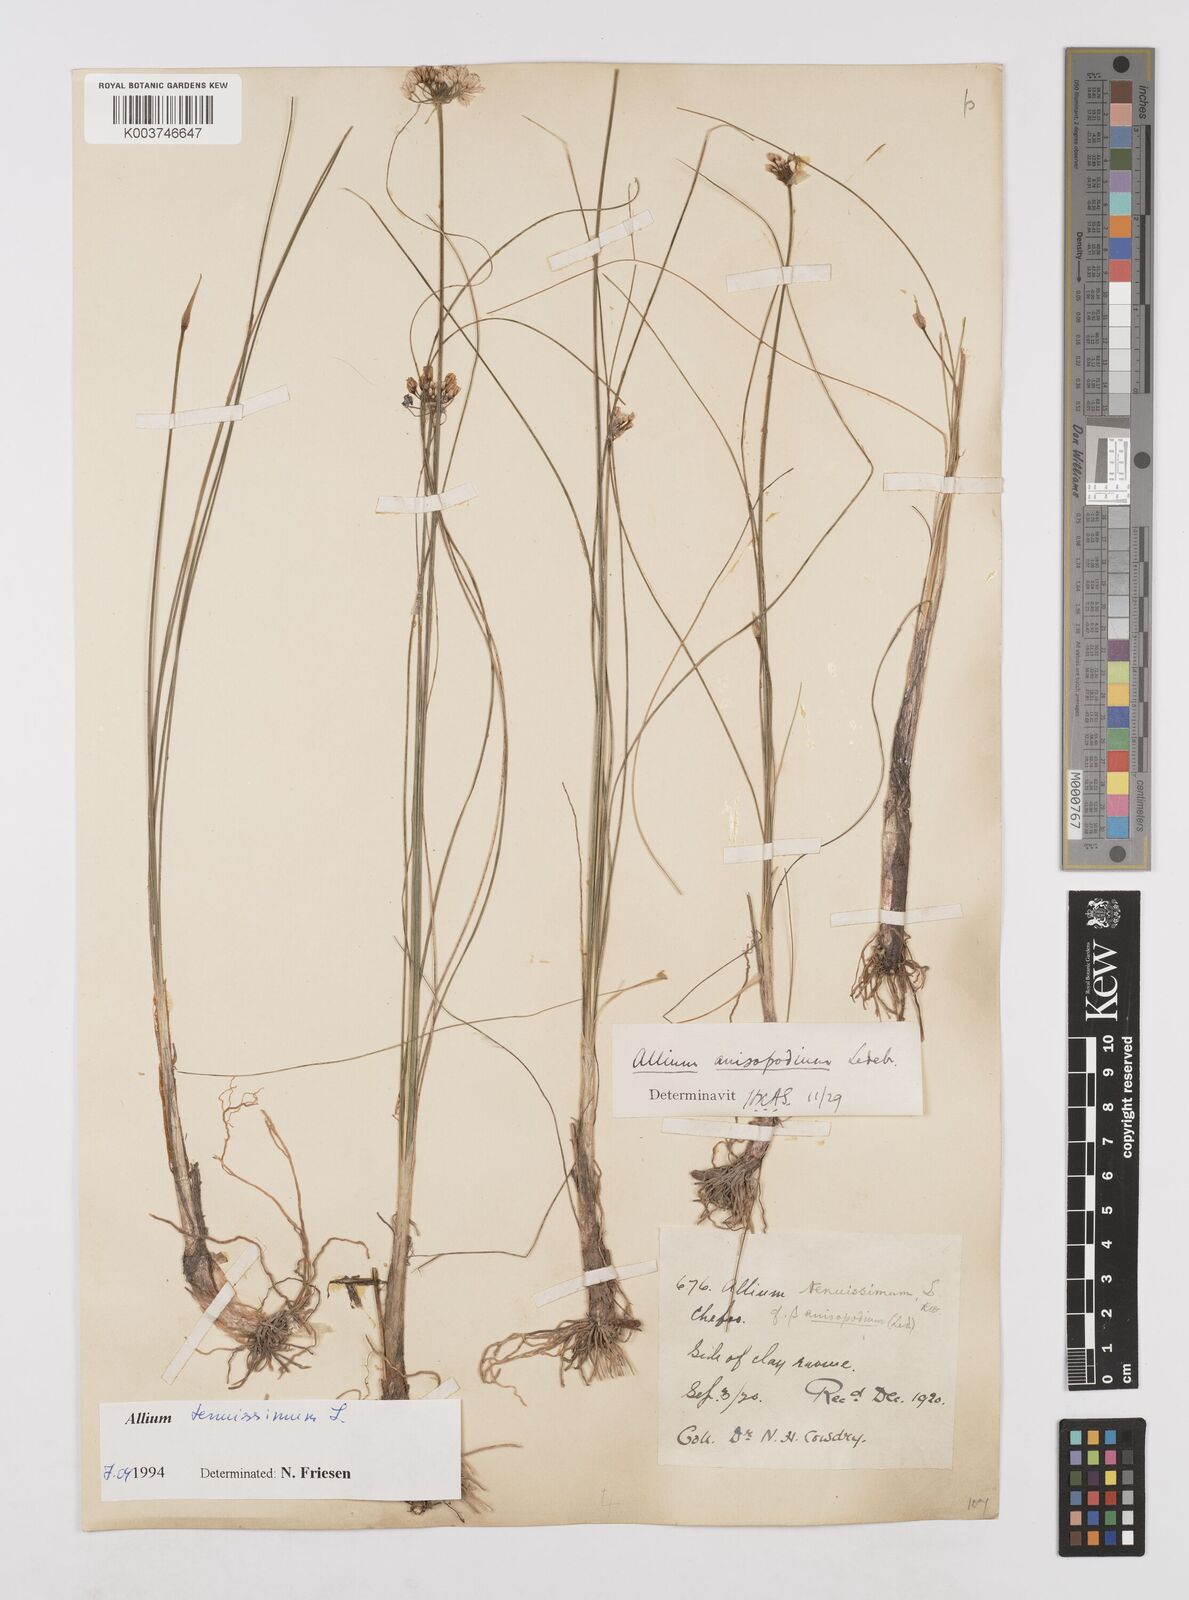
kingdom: Plantae
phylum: Tracheophyta
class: Liliopsida
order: Asparagales
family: Amaryllidaceae
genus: Allium
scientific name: Allium tenuissimum
